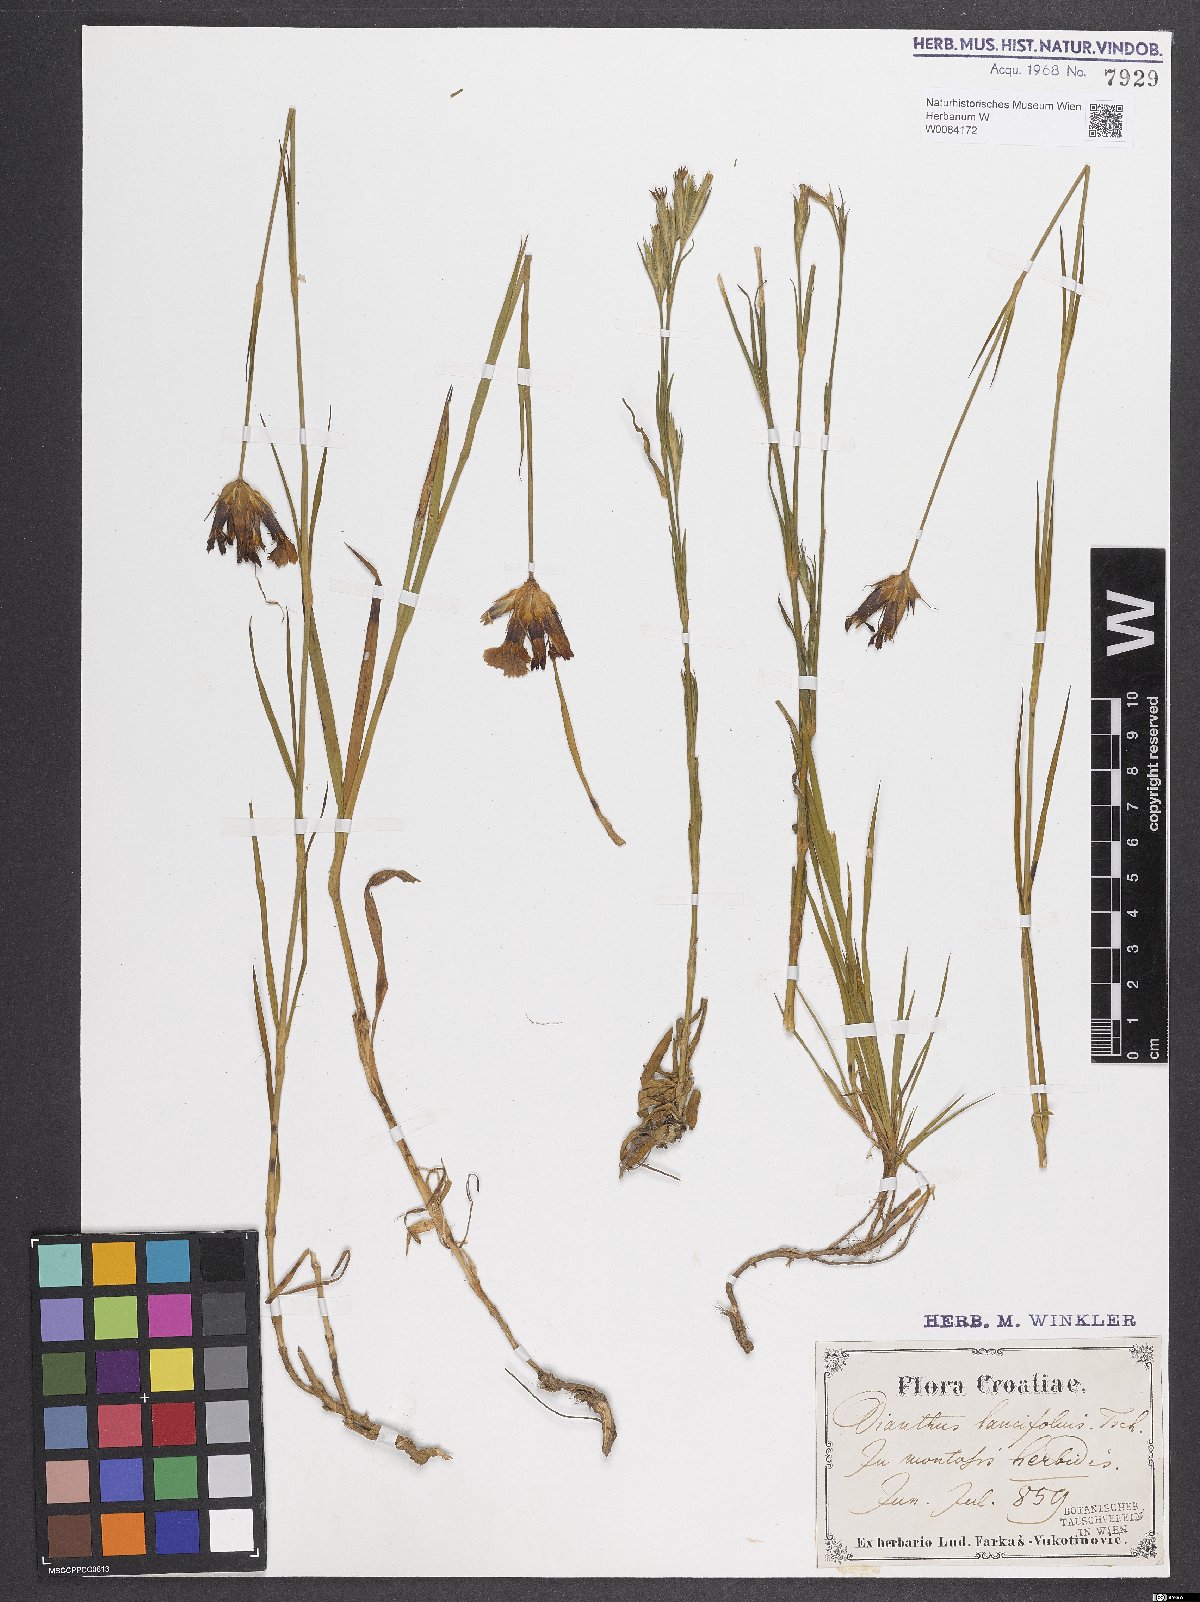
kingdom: Plantae
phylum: Tracheophyta
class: Magnoliopsida
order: Caryophyllales
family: Caryophyllaceae
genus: Dianthus
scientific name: Dianthus trifasciculatus
